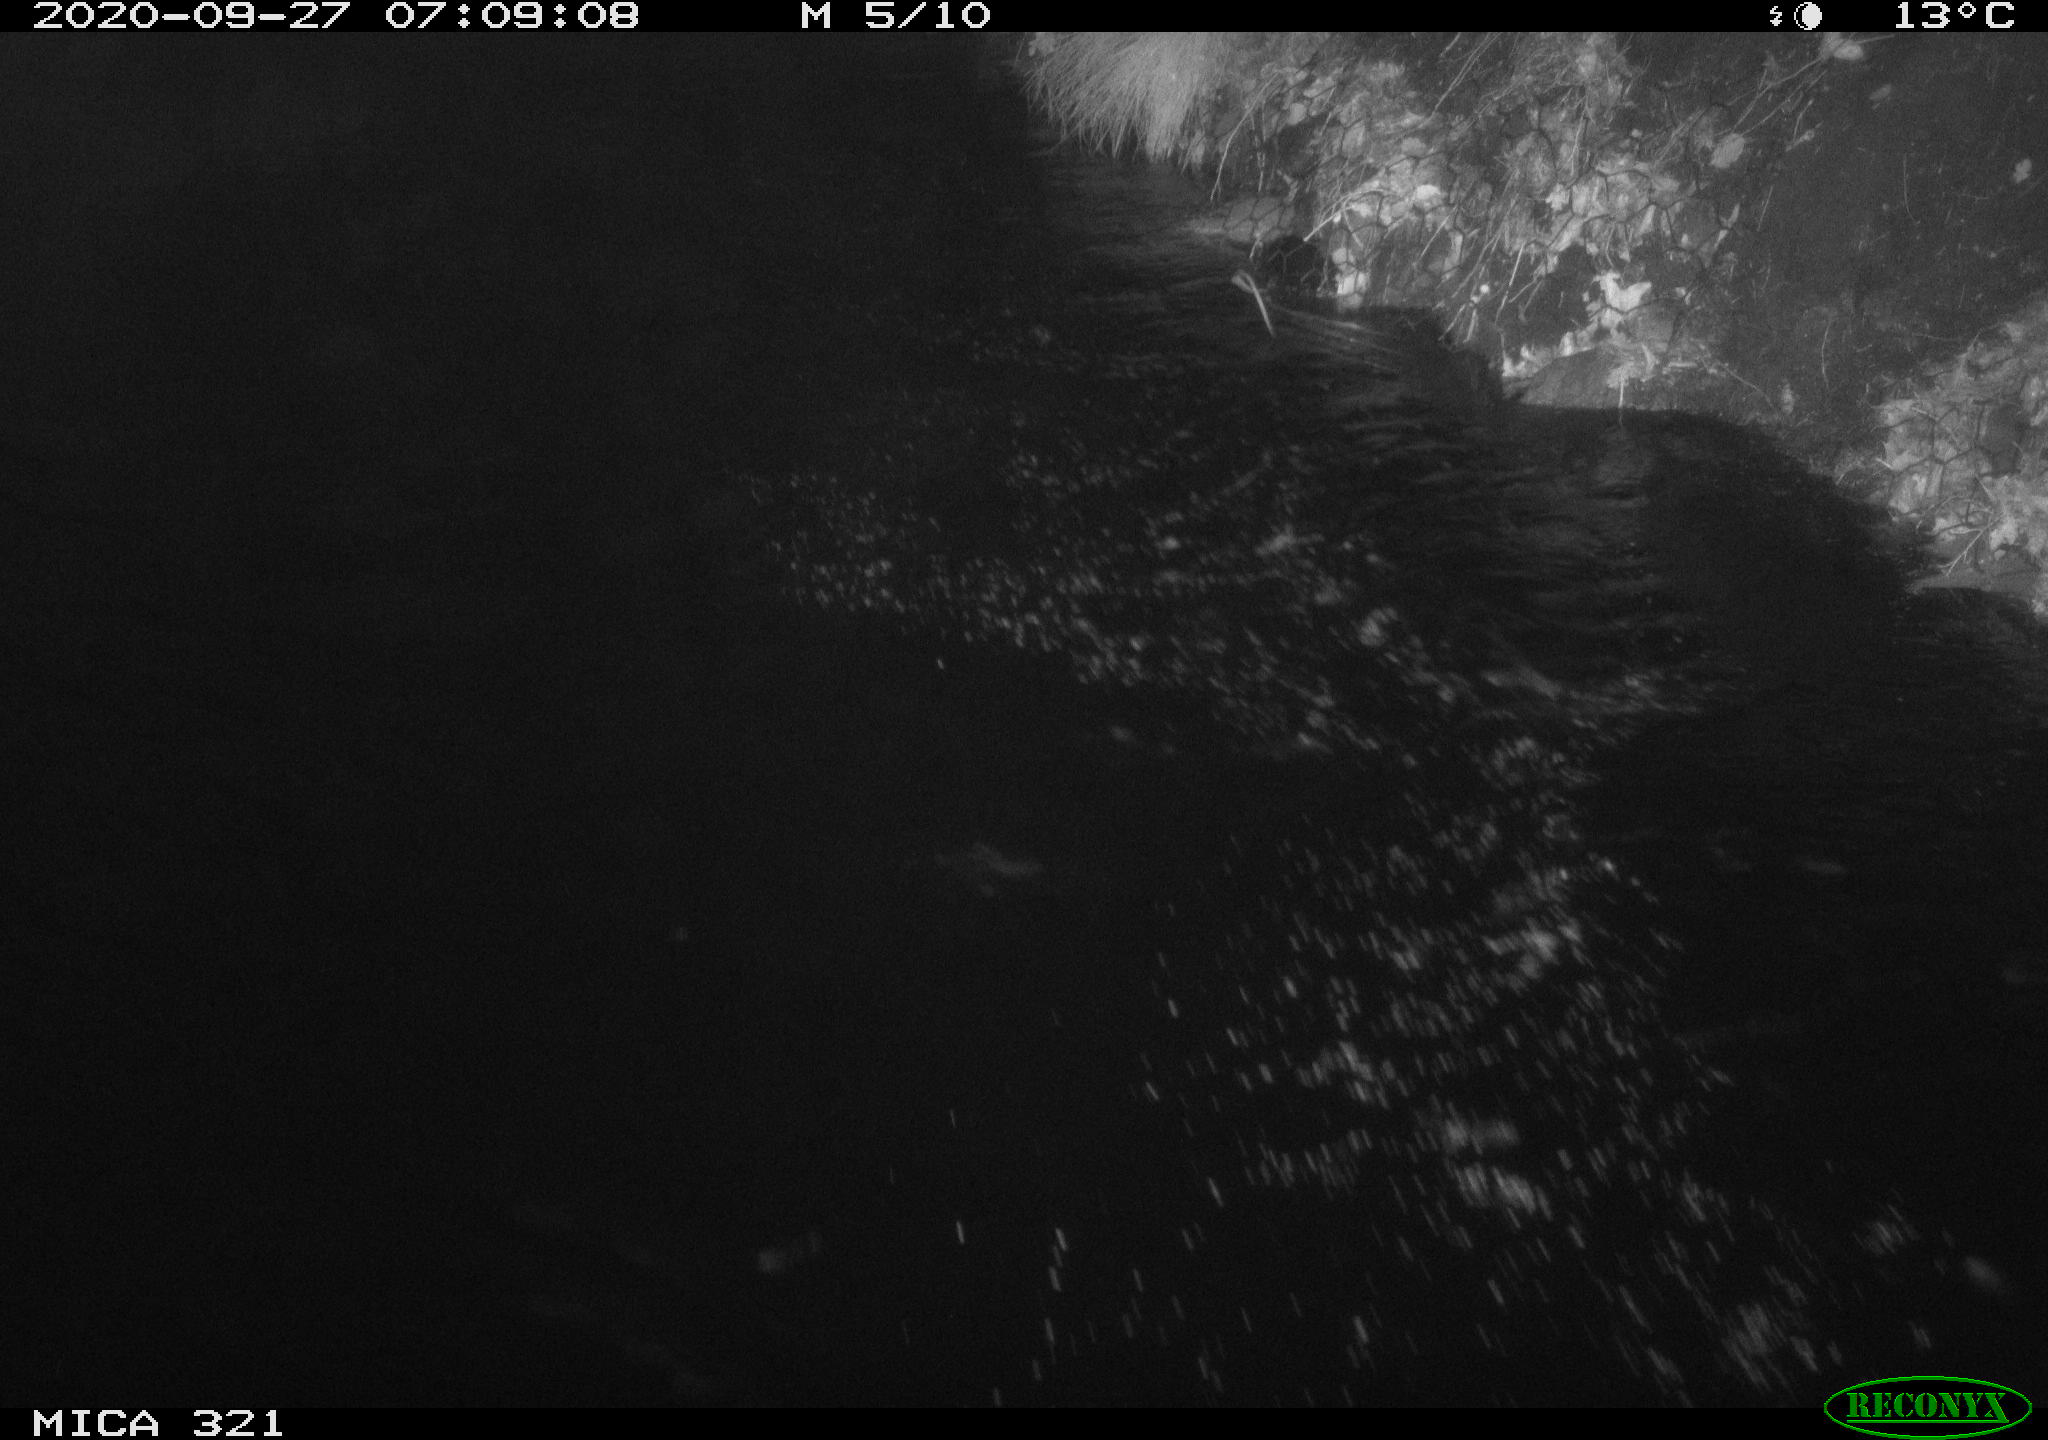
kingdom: Animalia
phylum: Chordata
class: Aves
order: Anseriformes
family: Anatidae
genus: Anas
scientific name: Anas platyrhynchos
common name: Mallard
